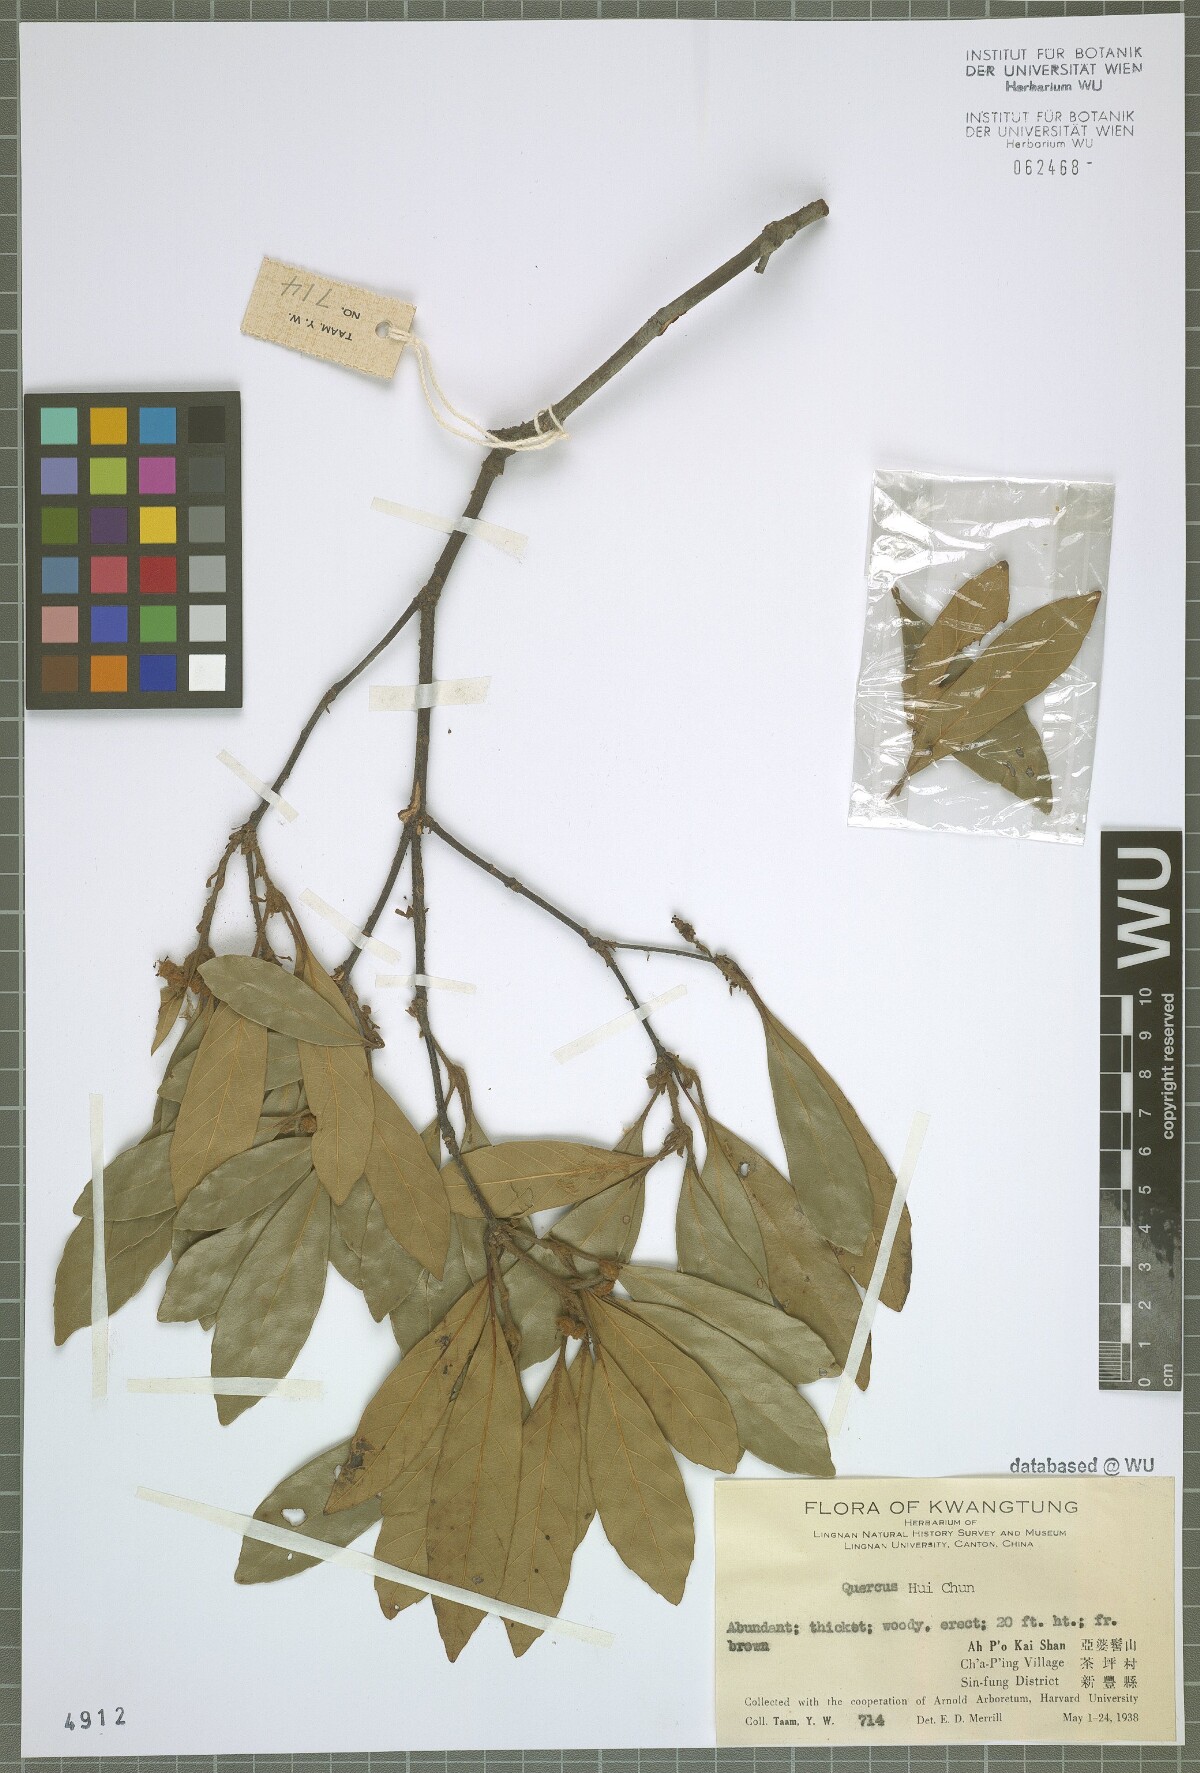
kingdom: Plantae
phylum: Tracheophyta
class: Magnoliopsida
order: Fagales
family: Fagaceae
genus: Quercus
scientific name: Quercus
